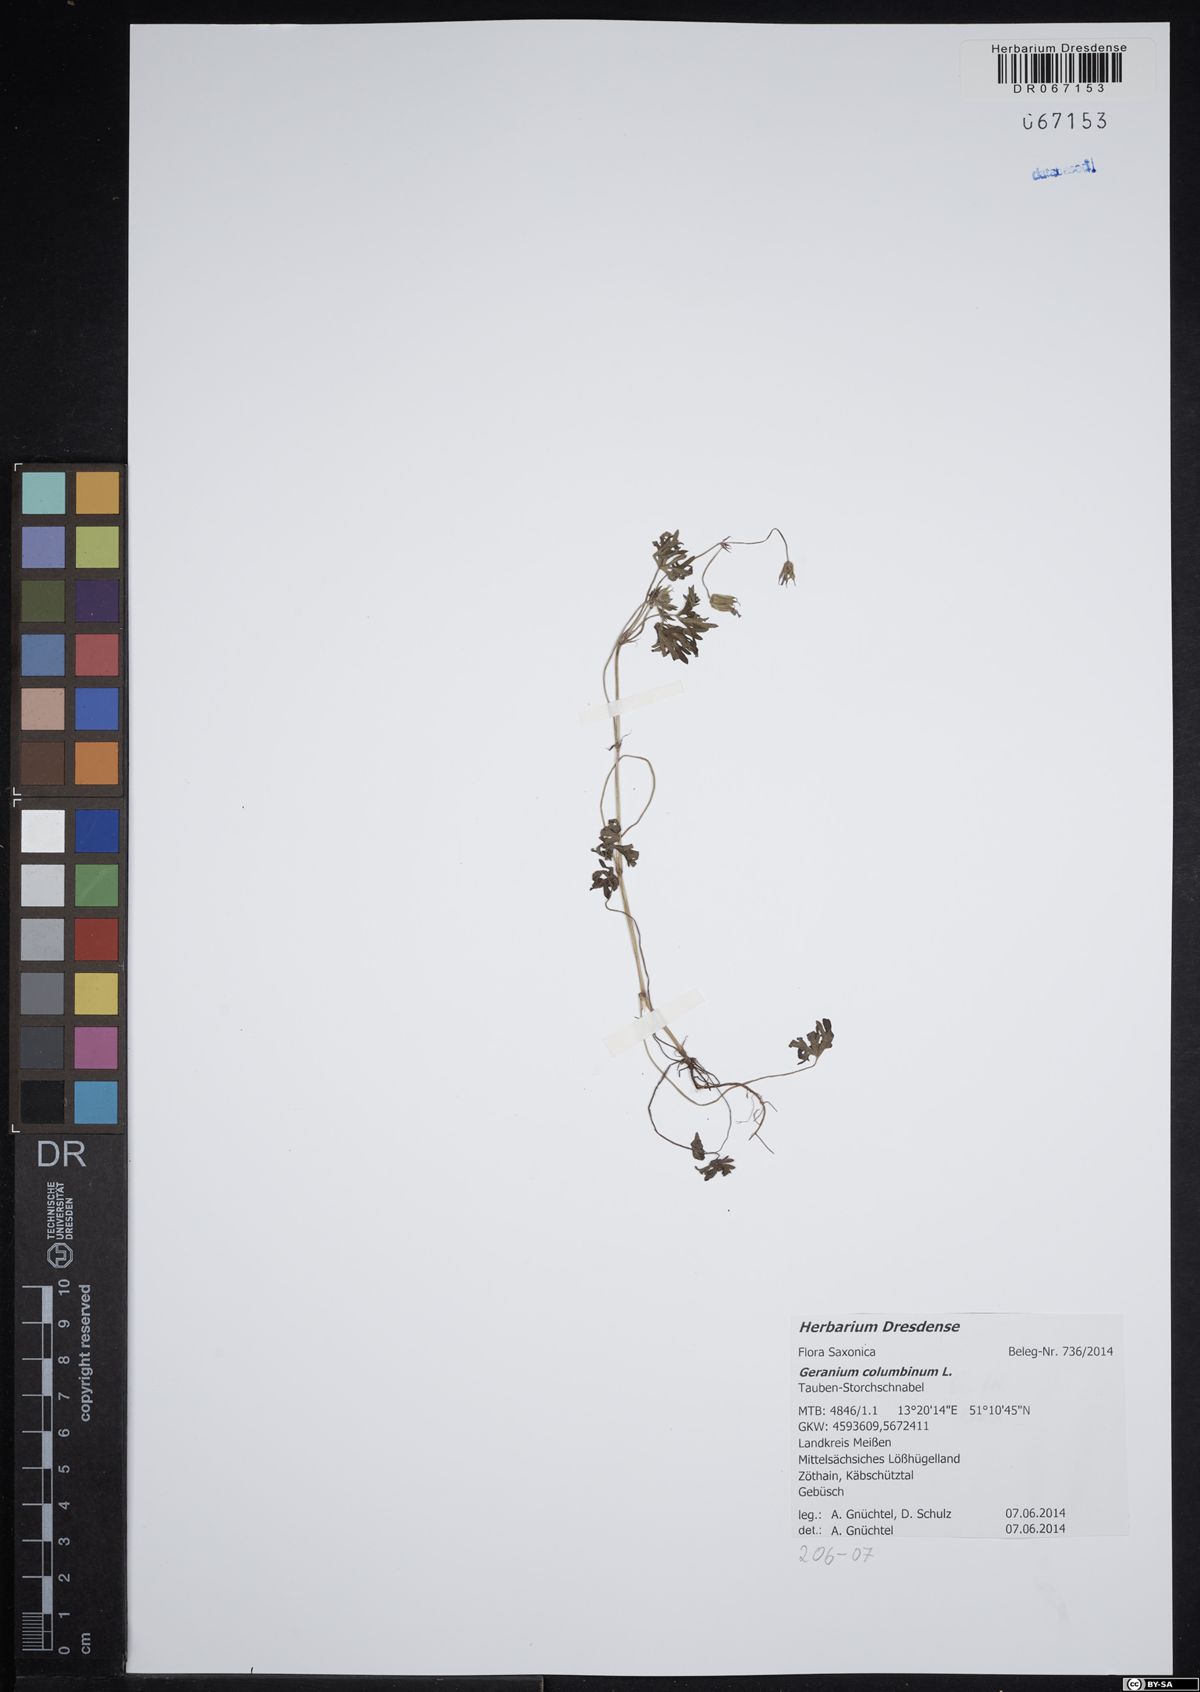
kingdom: Plantae
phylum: Tracheophyta
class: Magnoliopsida
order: Geraniales
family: Geraniaceae
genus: Geranium
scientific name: Geranium columbinum
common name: Long-stalked crane's-bill
